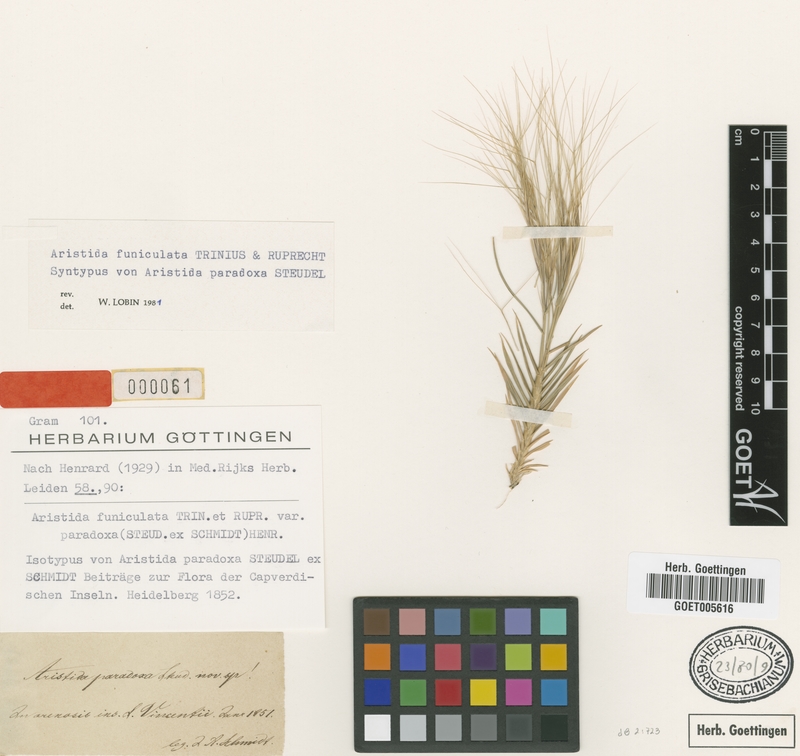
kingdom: Plantae
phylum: Tracheophyta
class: Liliopsida
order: Poales
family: Poaceae
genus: Aristida
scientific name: Aristida funiculata
